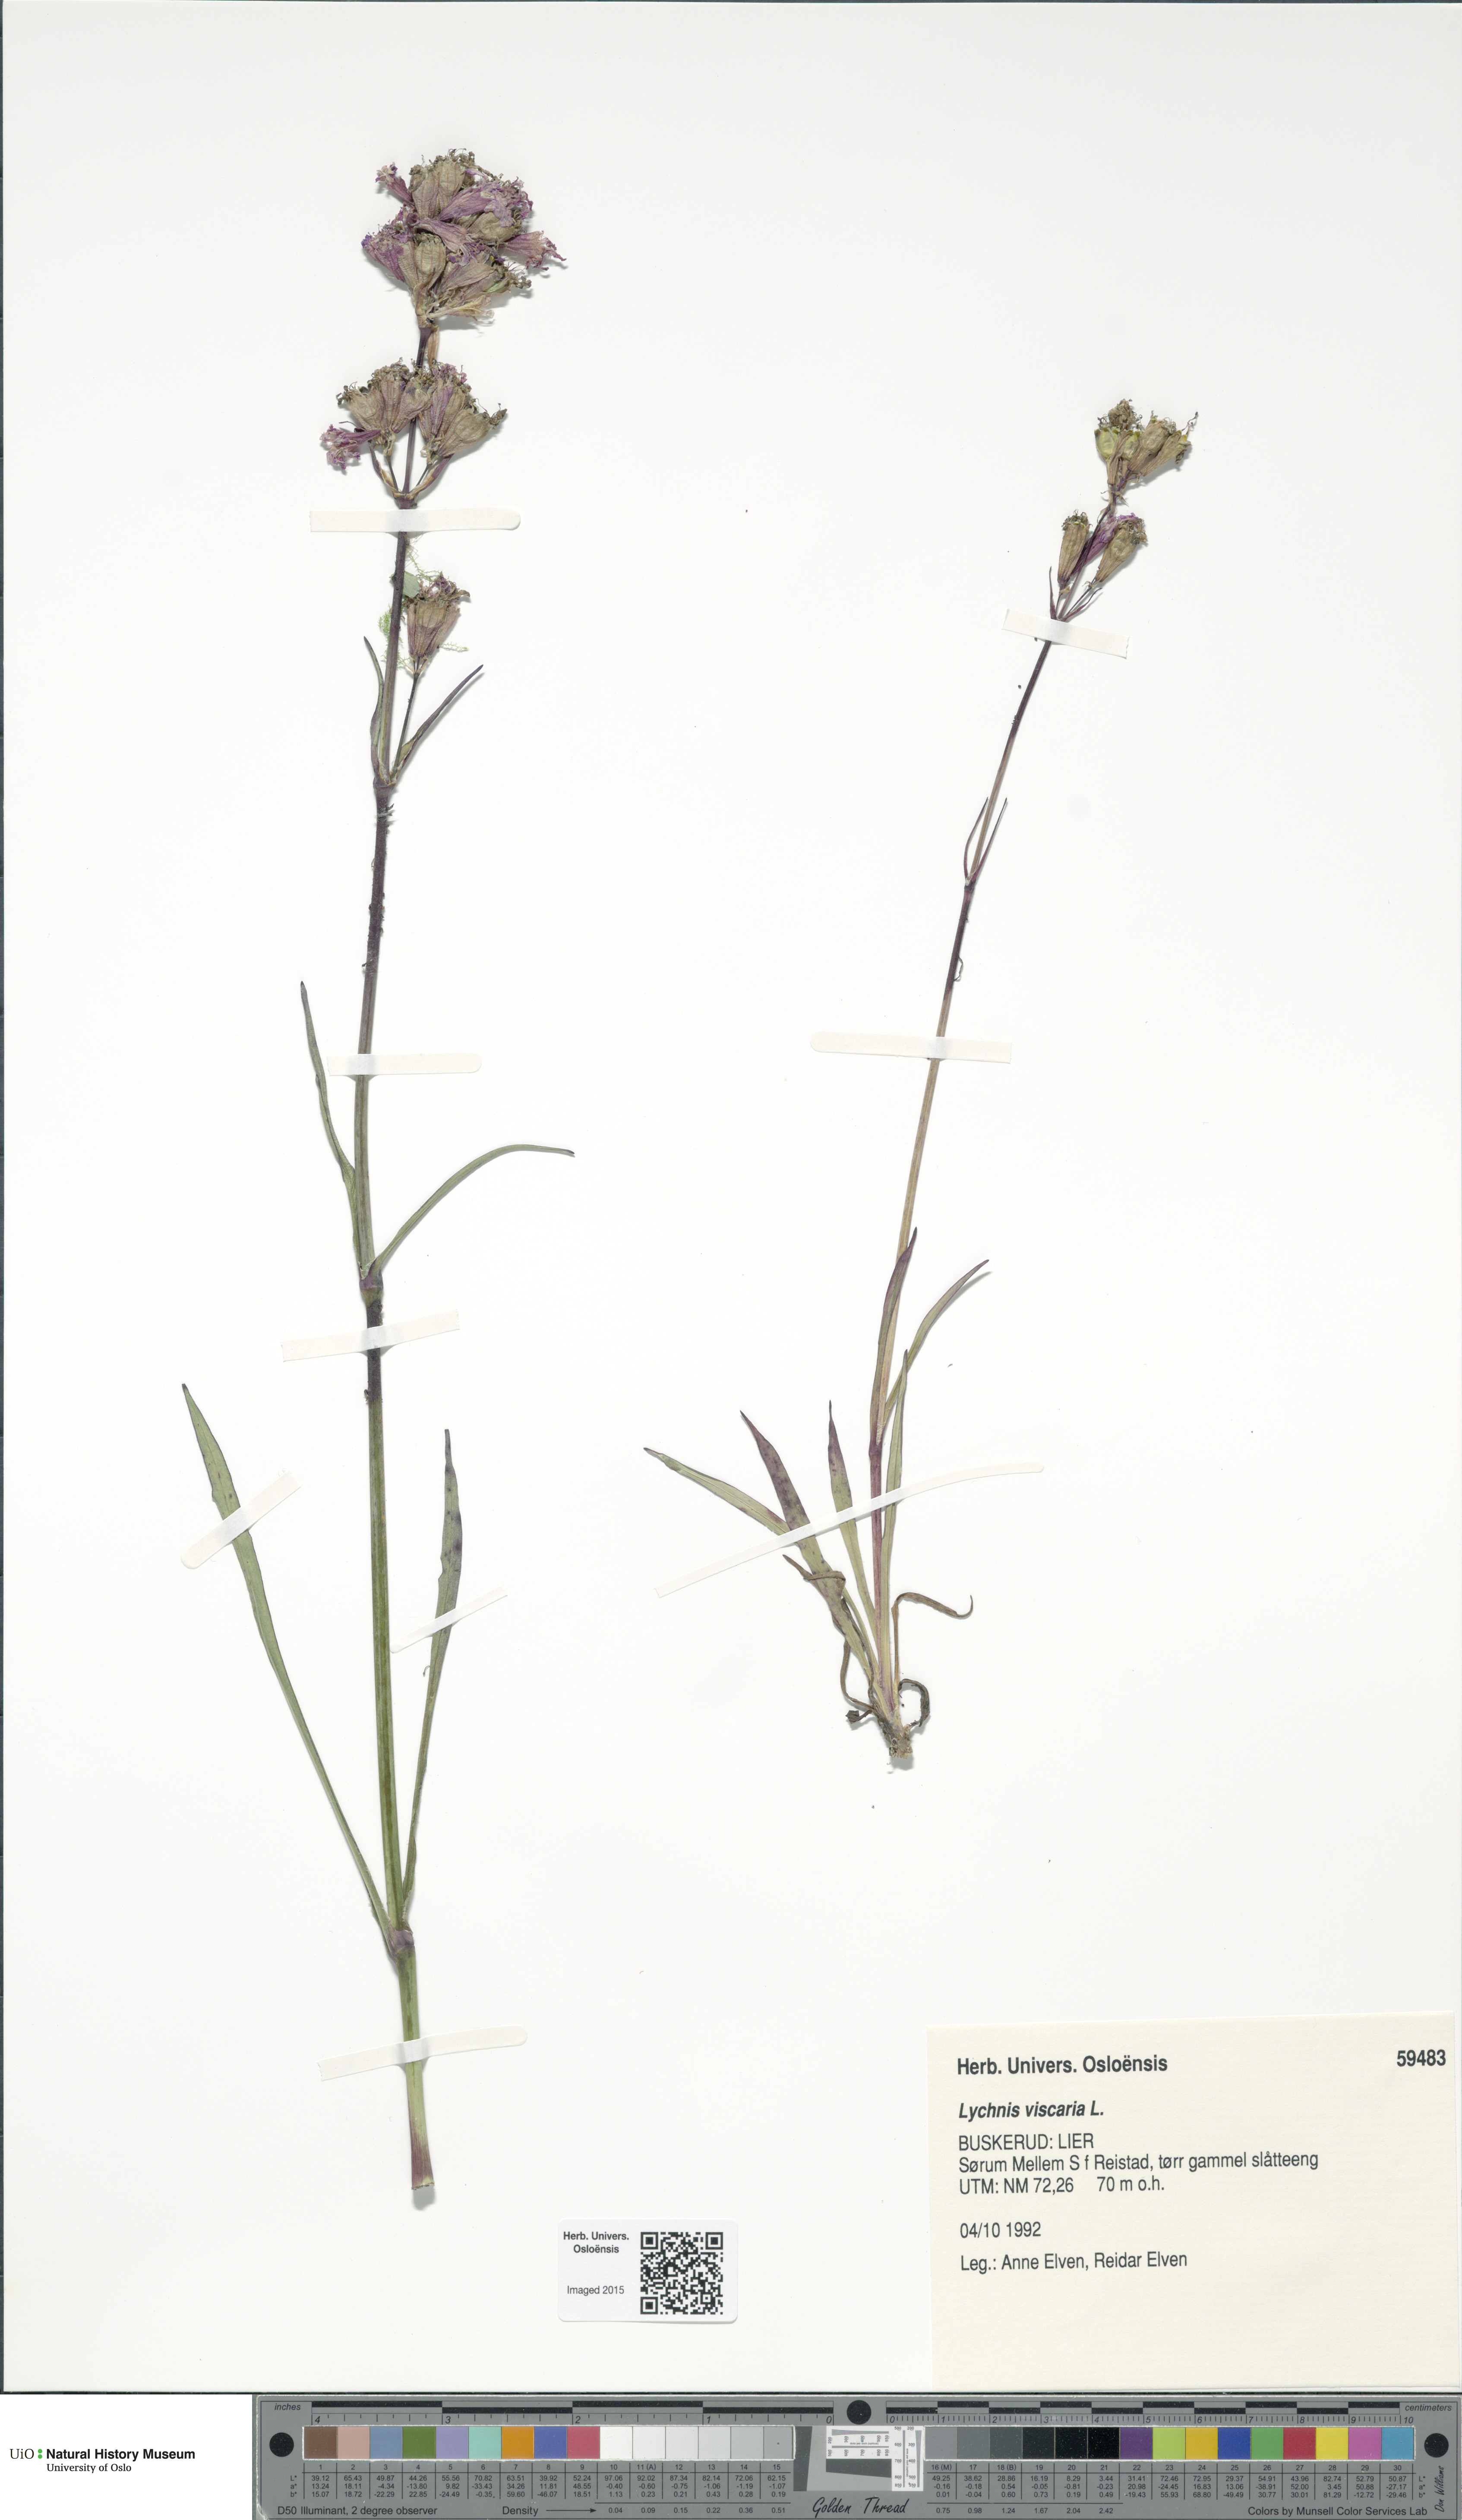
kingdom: Plantae
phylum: Tracheophyta
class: Magnoliopsida
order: Caryophyllales
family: Caryophyllaceae
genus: Viscaria
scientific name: Viscaria vulgaris
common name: Clammy campion
